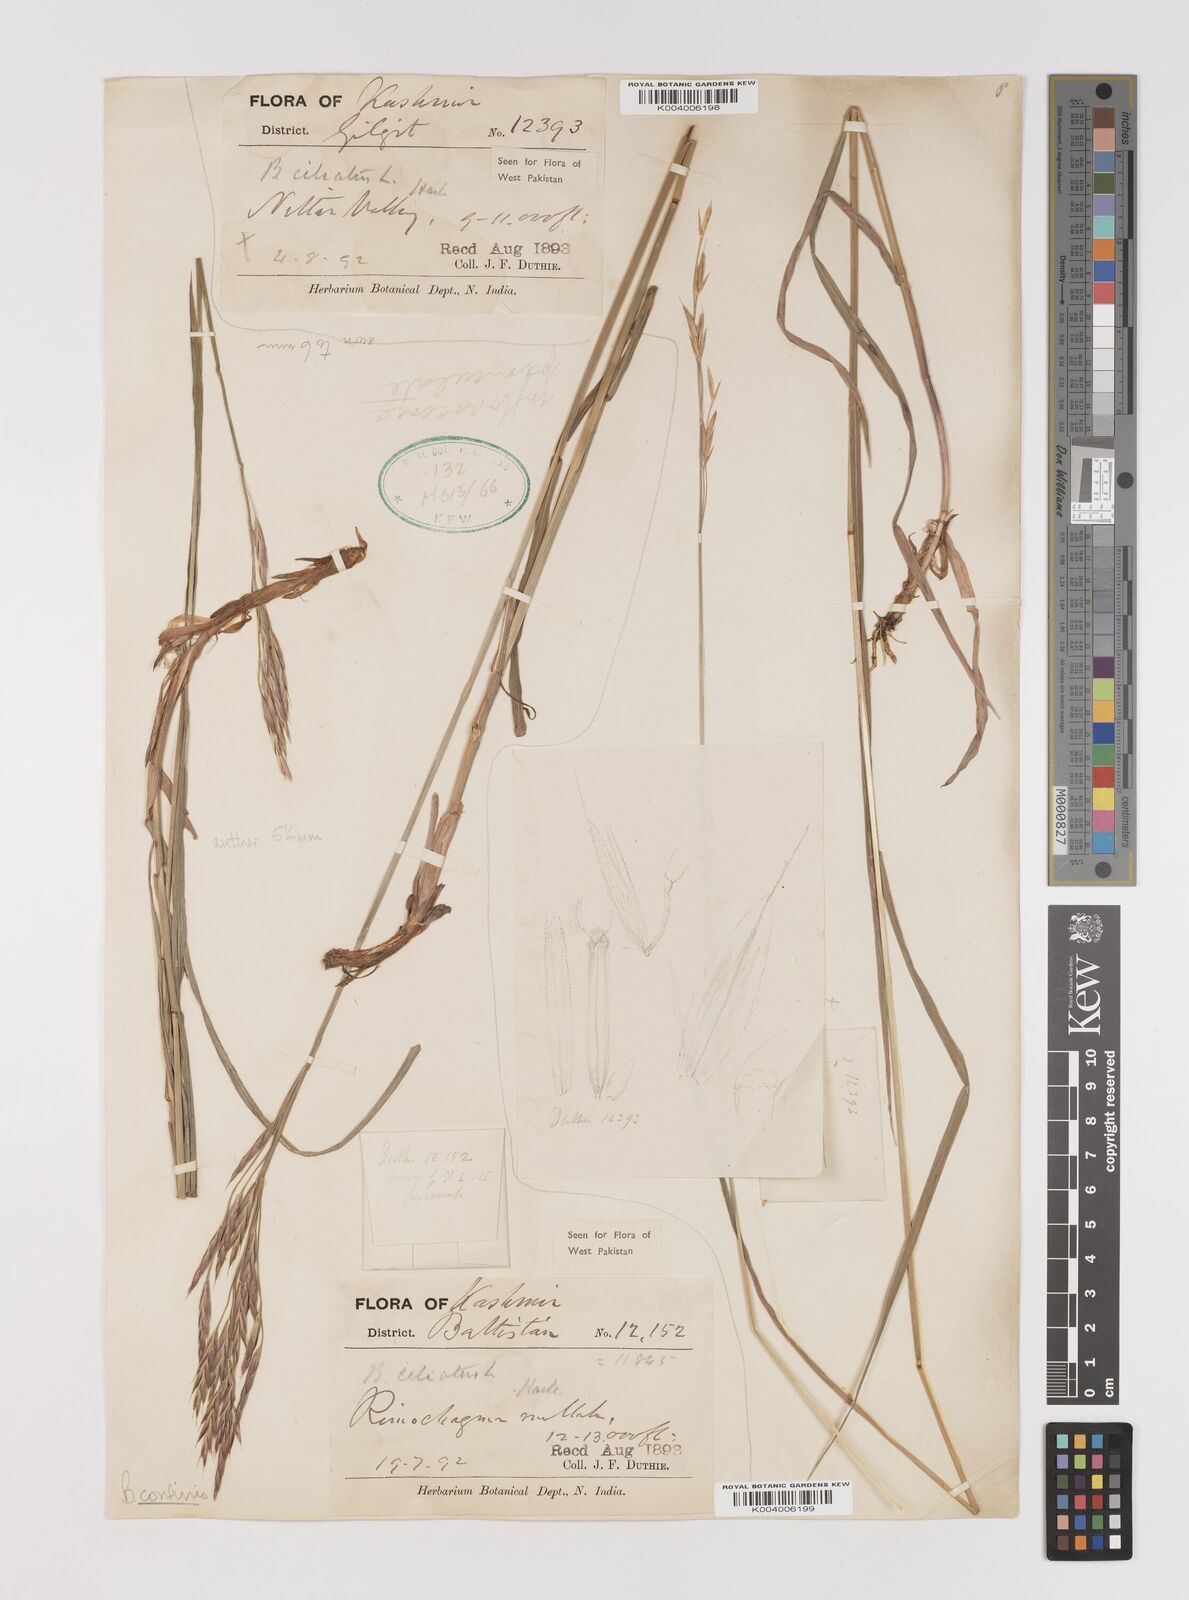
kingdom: Plantae
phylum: Tracheophyta
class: Liliopsida
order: Poales
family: Poaceae
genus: Bromus
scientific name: Bromus confinis
